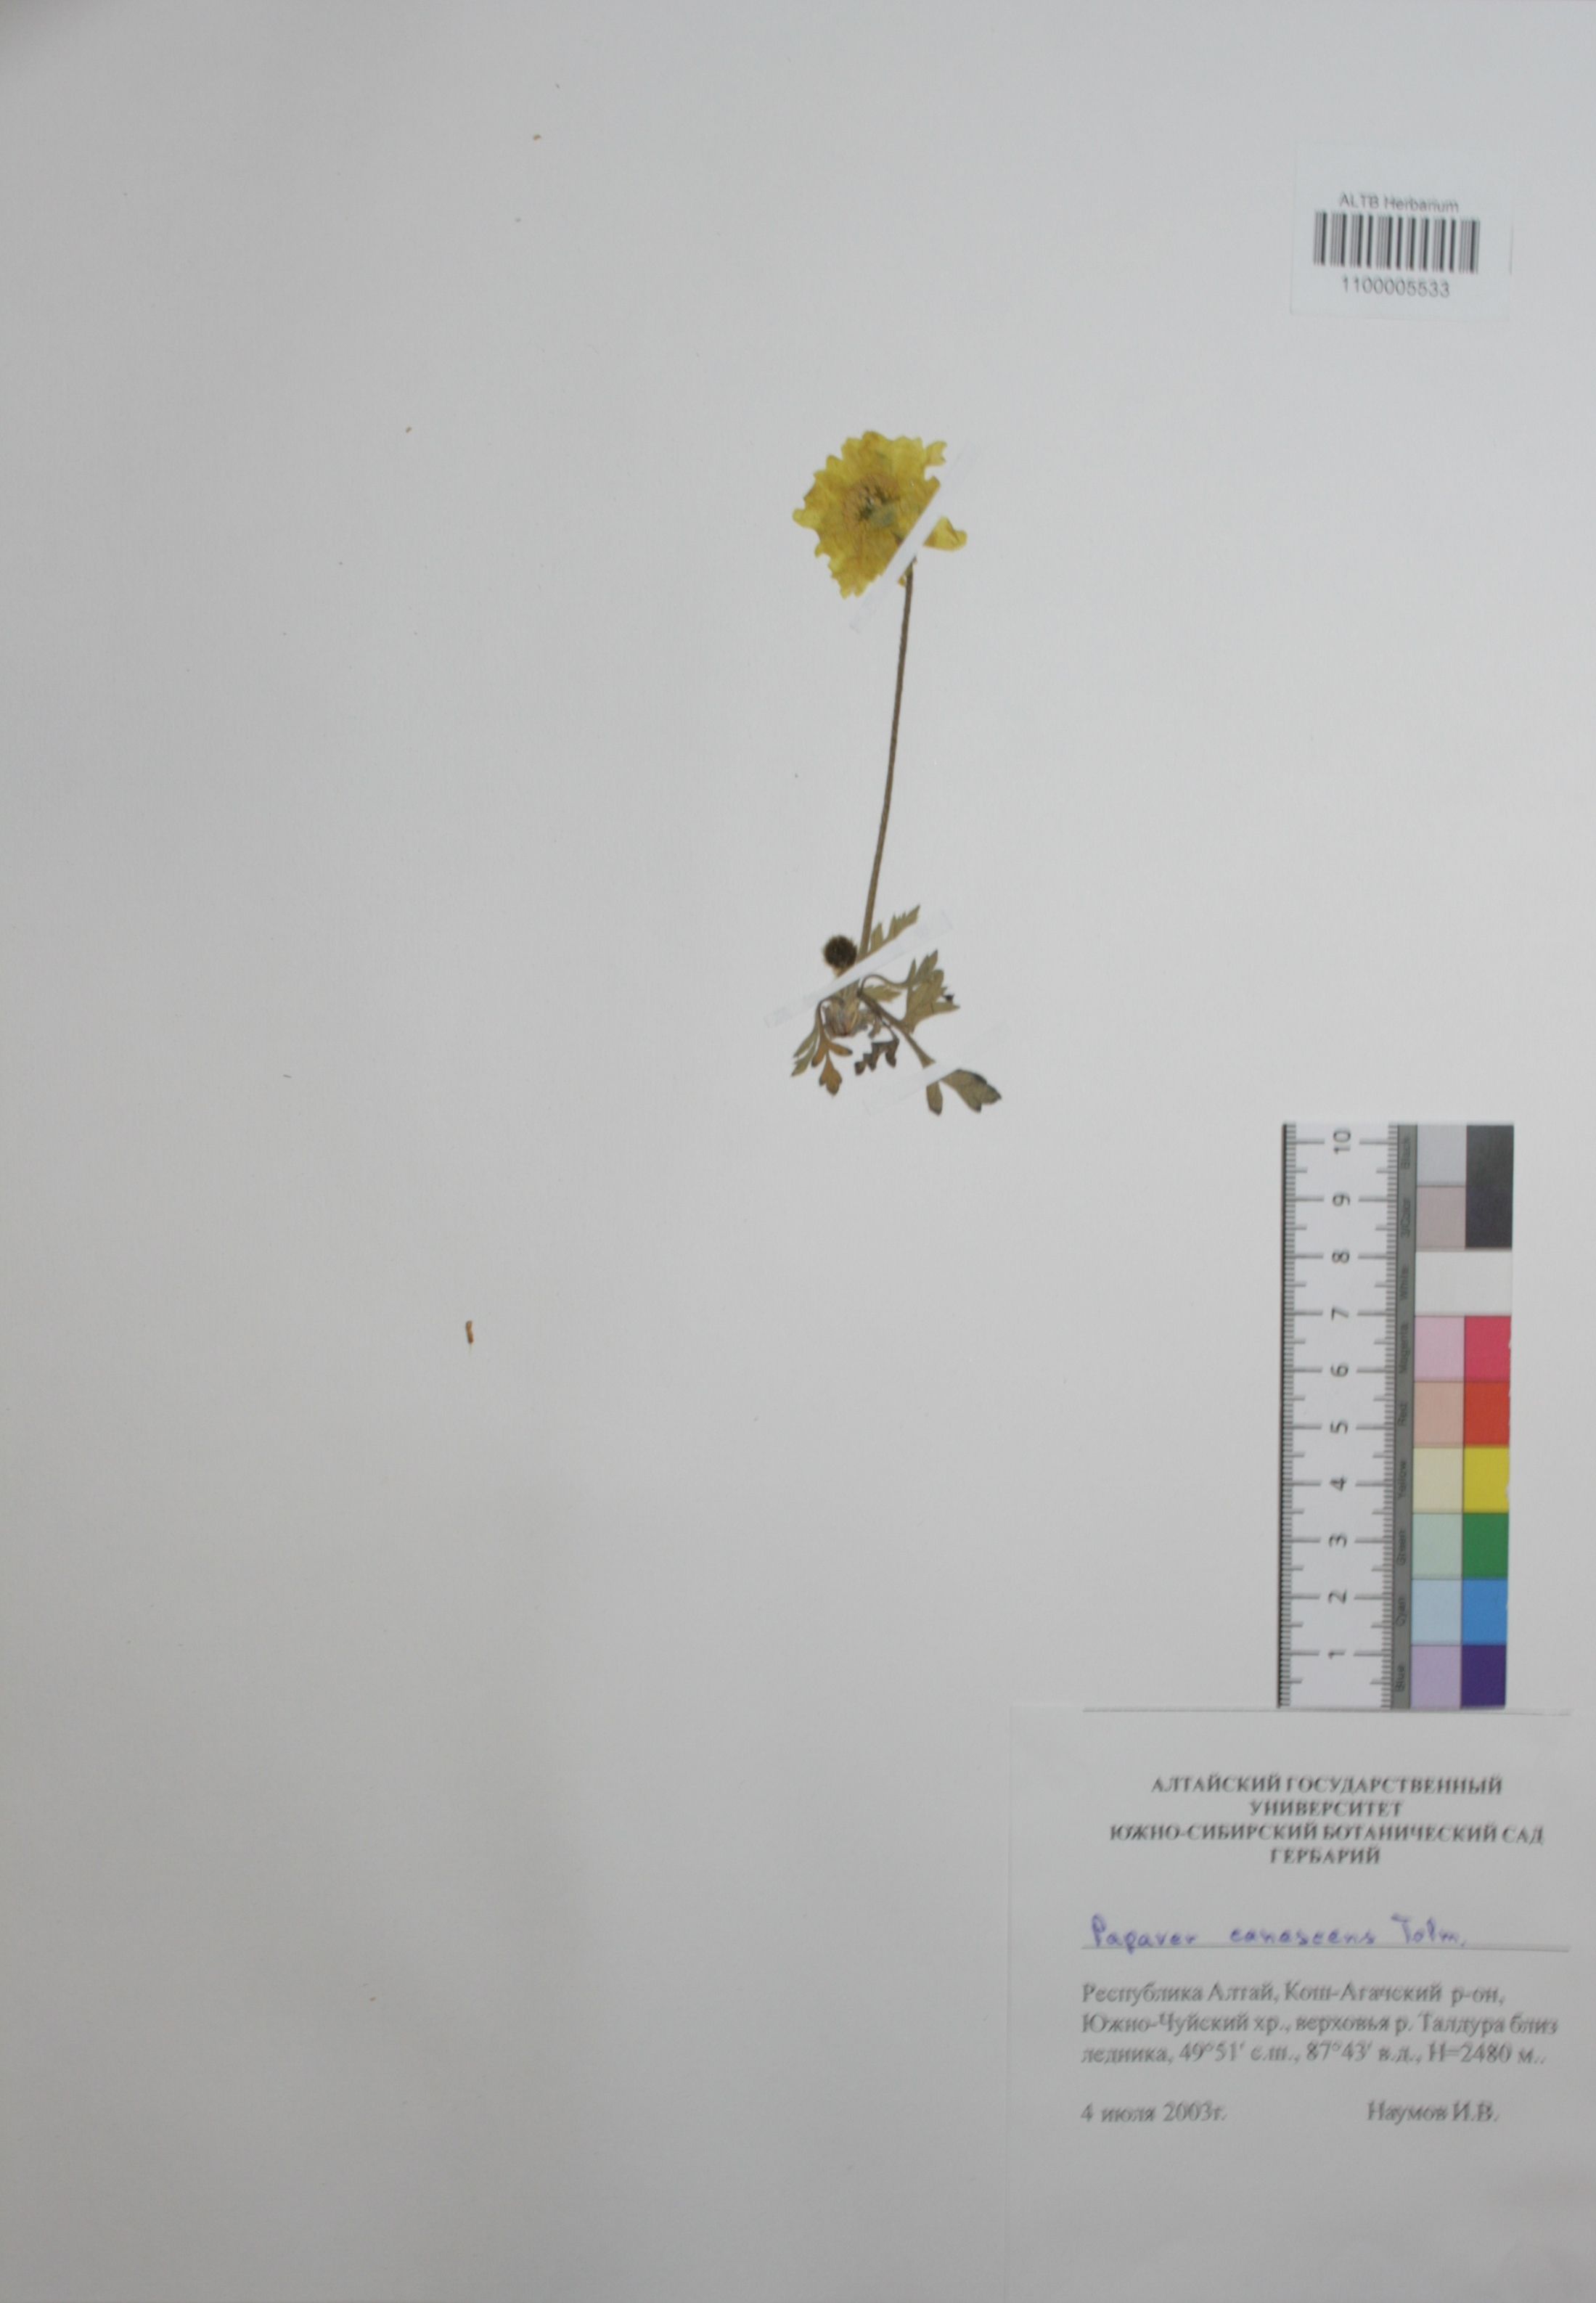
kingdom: Plantae
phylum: Tracheophyta
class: Magnoliopsida
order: Ranunculales
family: Papaveraceae
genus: Papaver
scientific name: Papaver canescens
